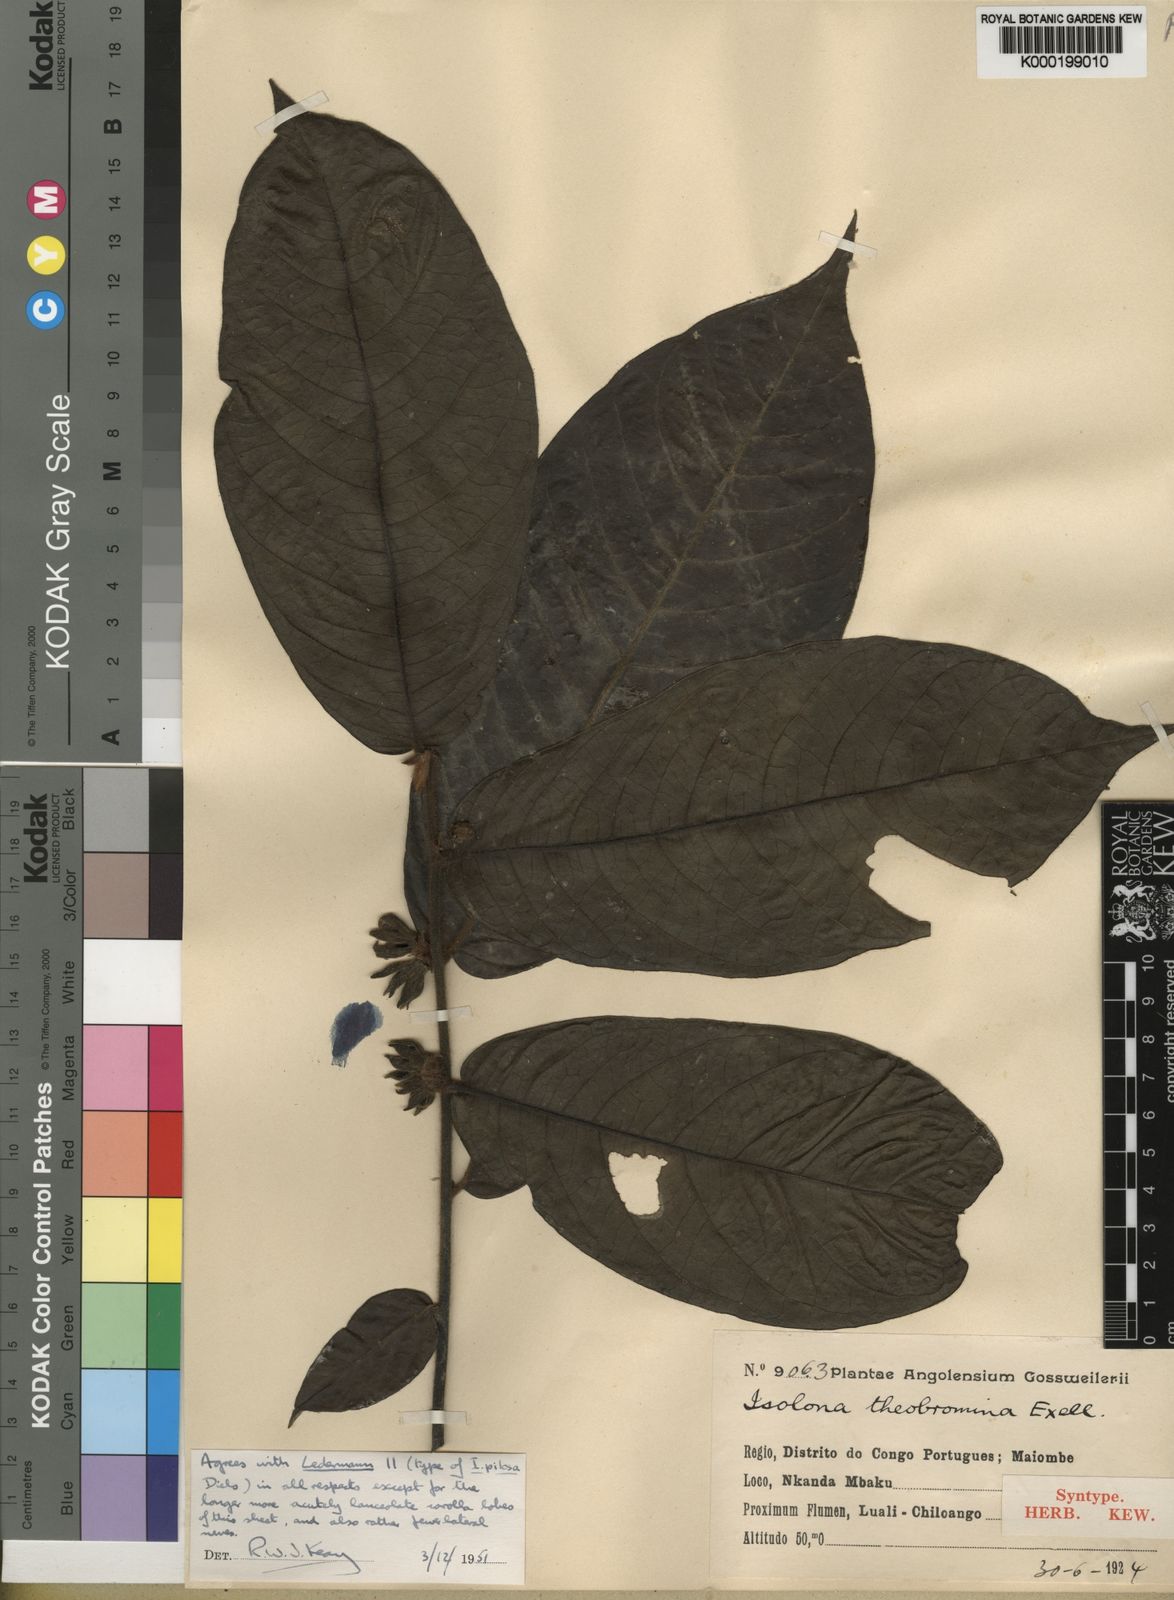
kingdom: Plantae
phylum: Tracheophyta
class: Magnoliopsida
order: Magnoliales
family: Annonaceae
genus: Isolona
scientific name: Isolona pilosa
